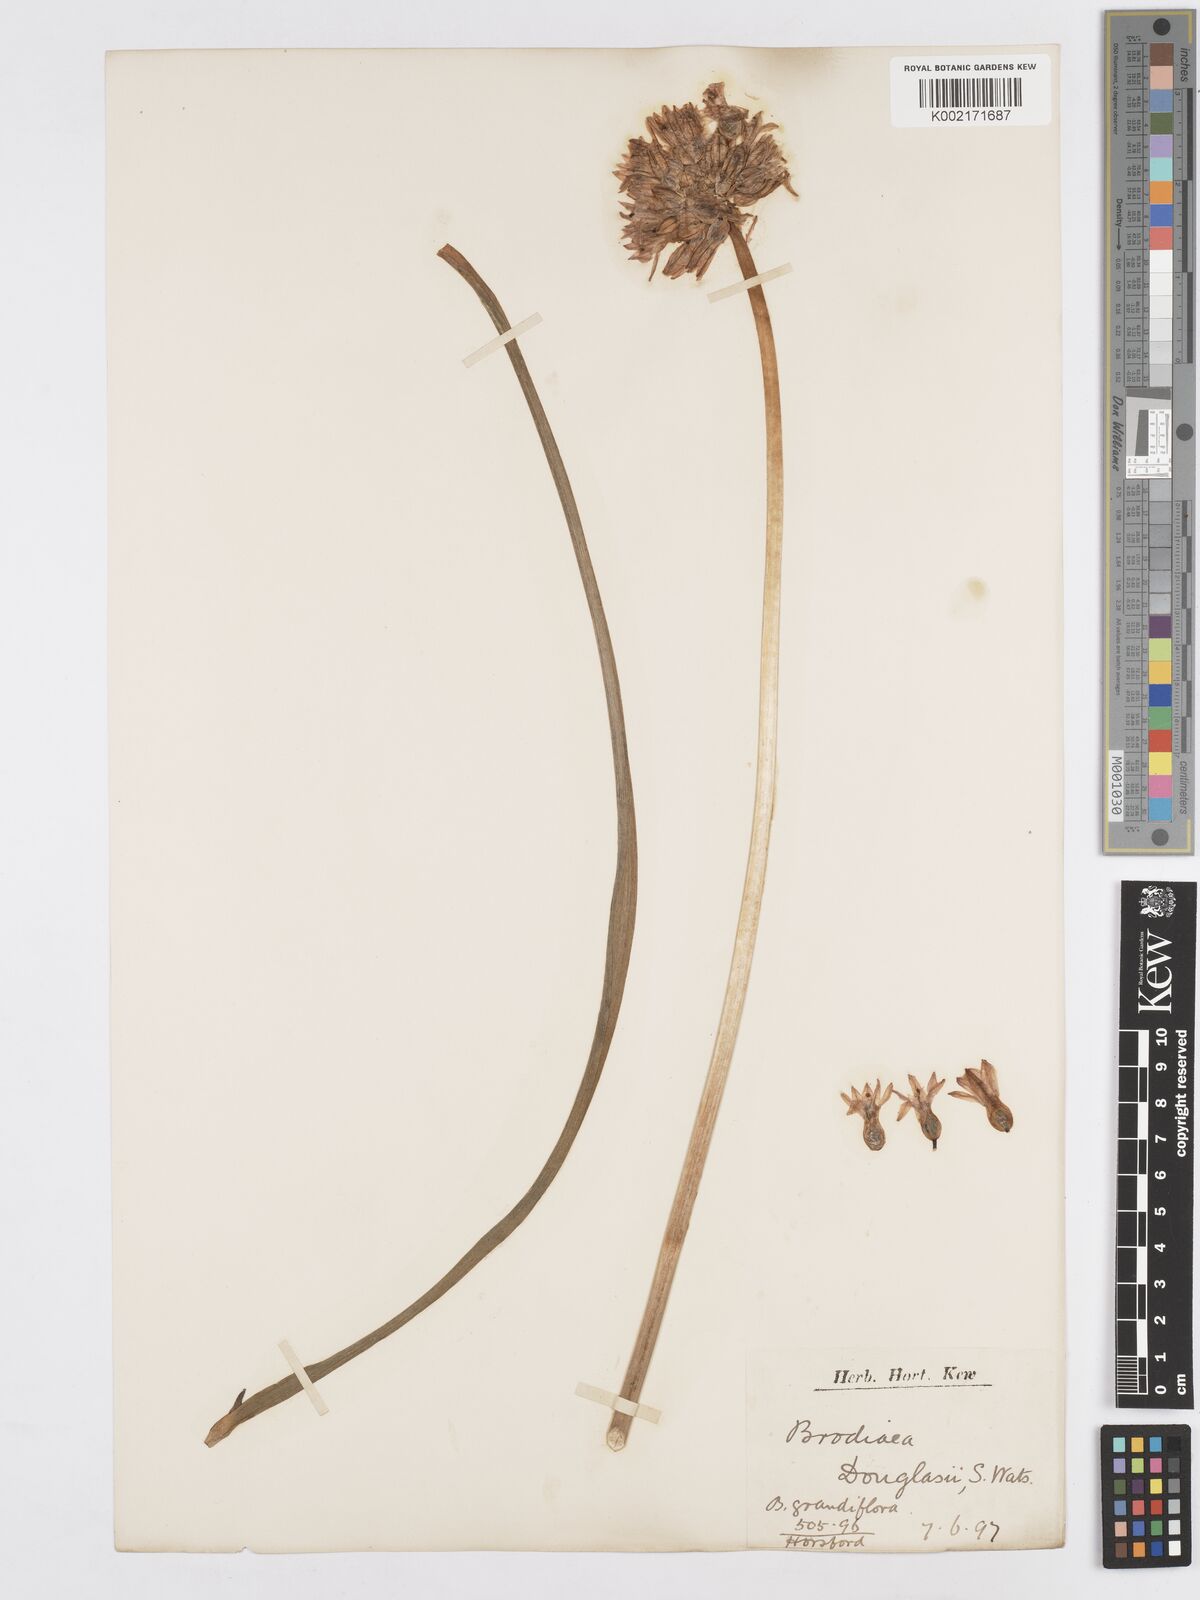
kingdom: Plantae
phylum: Tracheophyta
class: Liliopsida
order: Asparagales
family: Asparagaceae
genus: Triteleia
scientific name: Triteleia grandiflora
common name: Wild hyacinth
